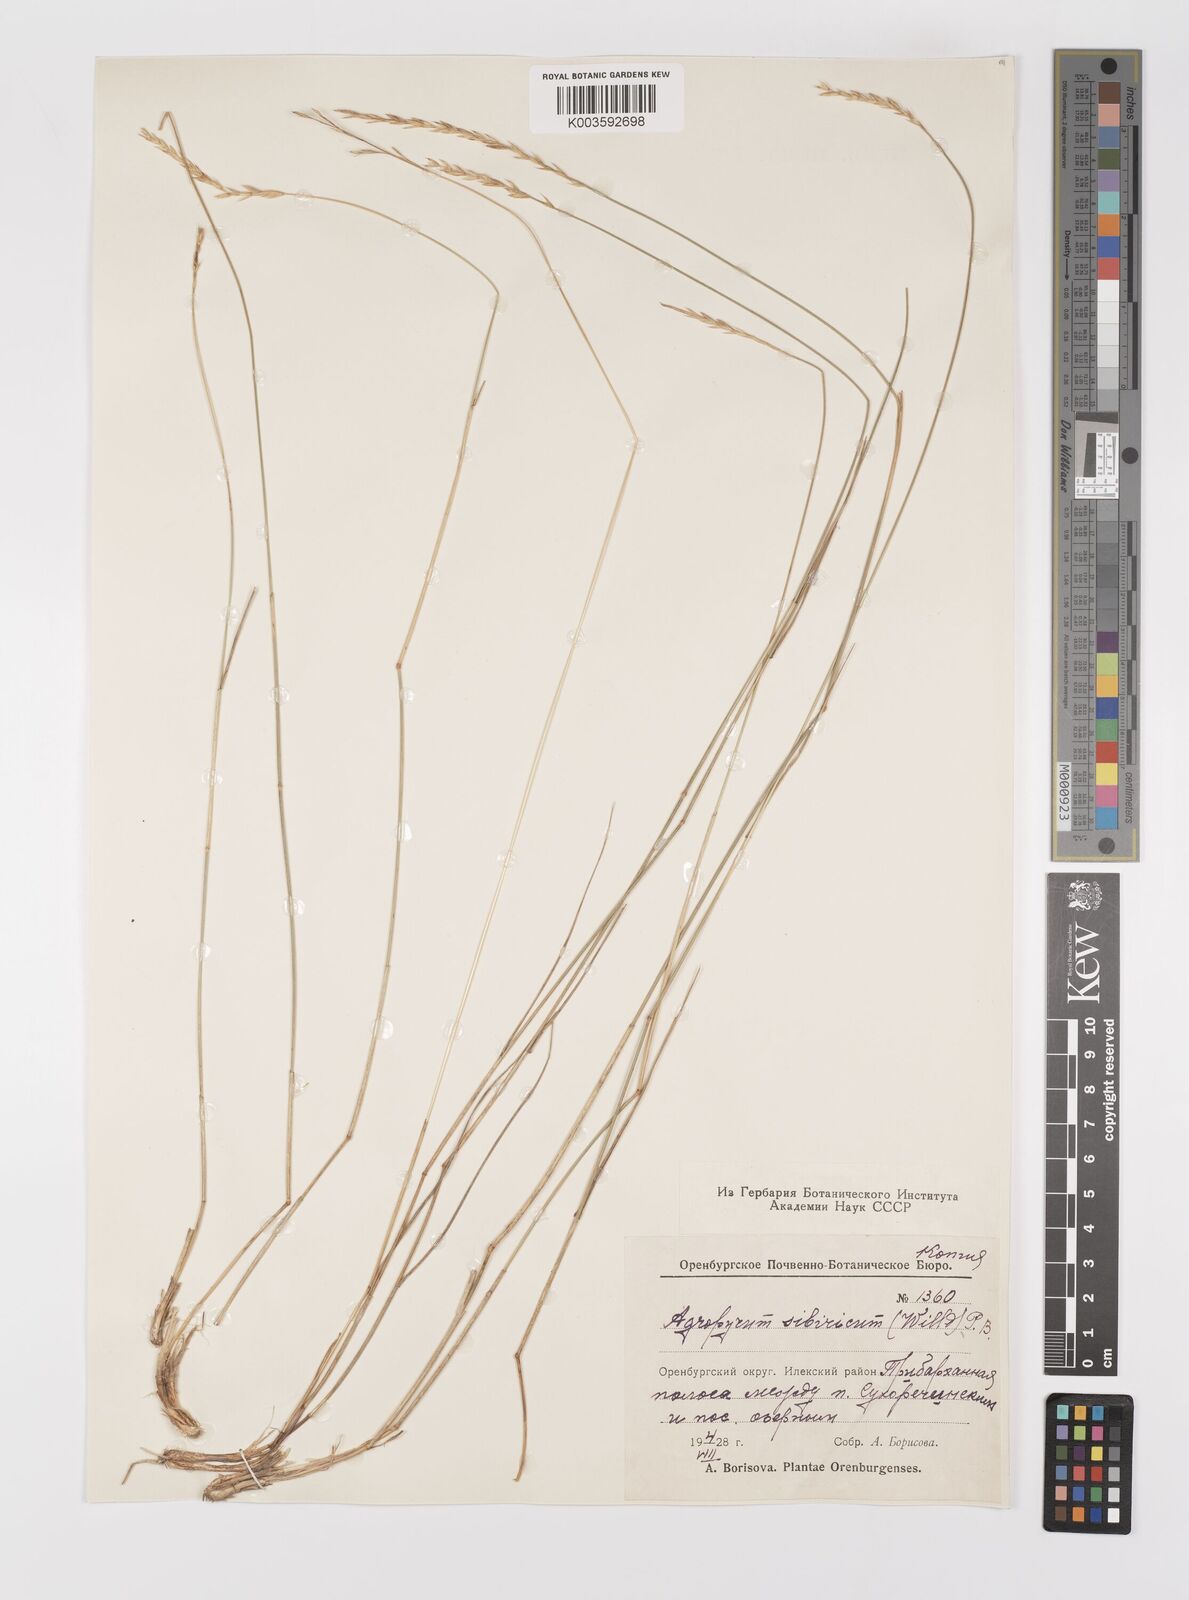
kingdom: Plantae
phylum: Tracheophyta
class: Liliopsida
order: Poales
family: Poaceae
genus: Agropyron
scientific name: Agropyron fragile
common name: Siberian wheatgrass
